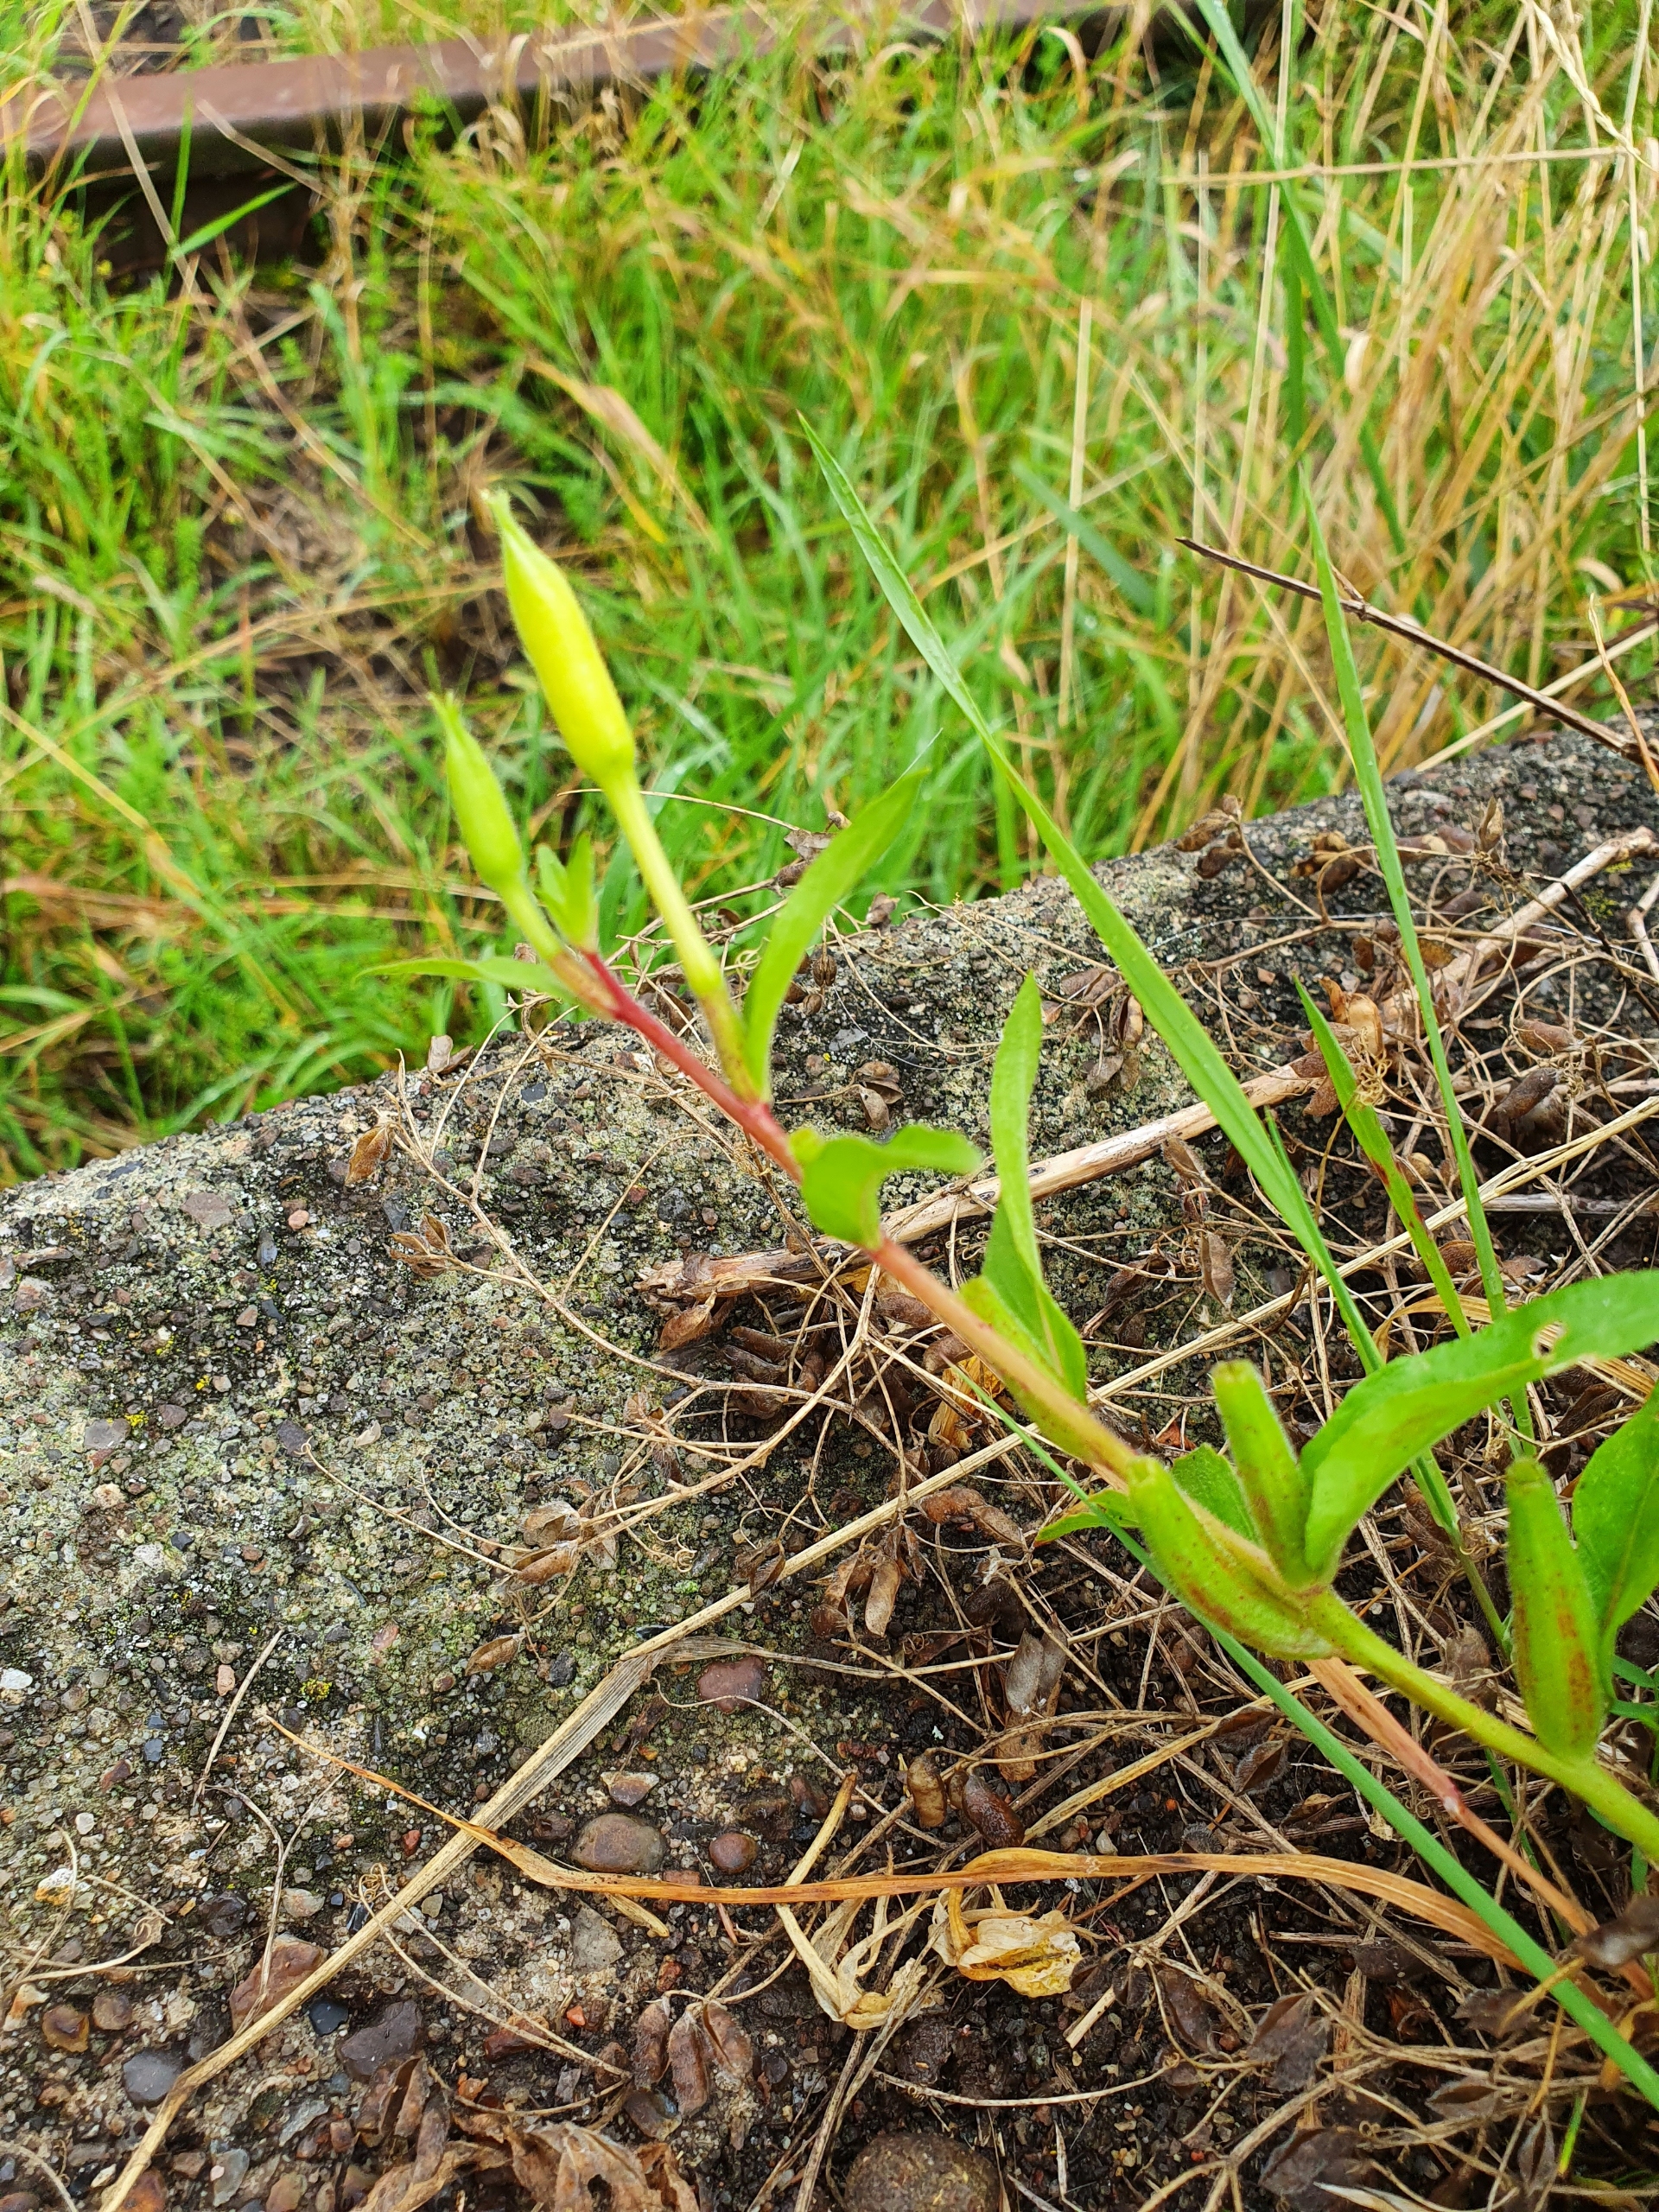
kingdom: Plantae
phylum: Tracheophyta
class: Magnoliopsida
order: Myrtales
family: Onagraceae
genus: Oenothera
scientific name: Oenothera biennis
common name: Rødfrugtet natlys
